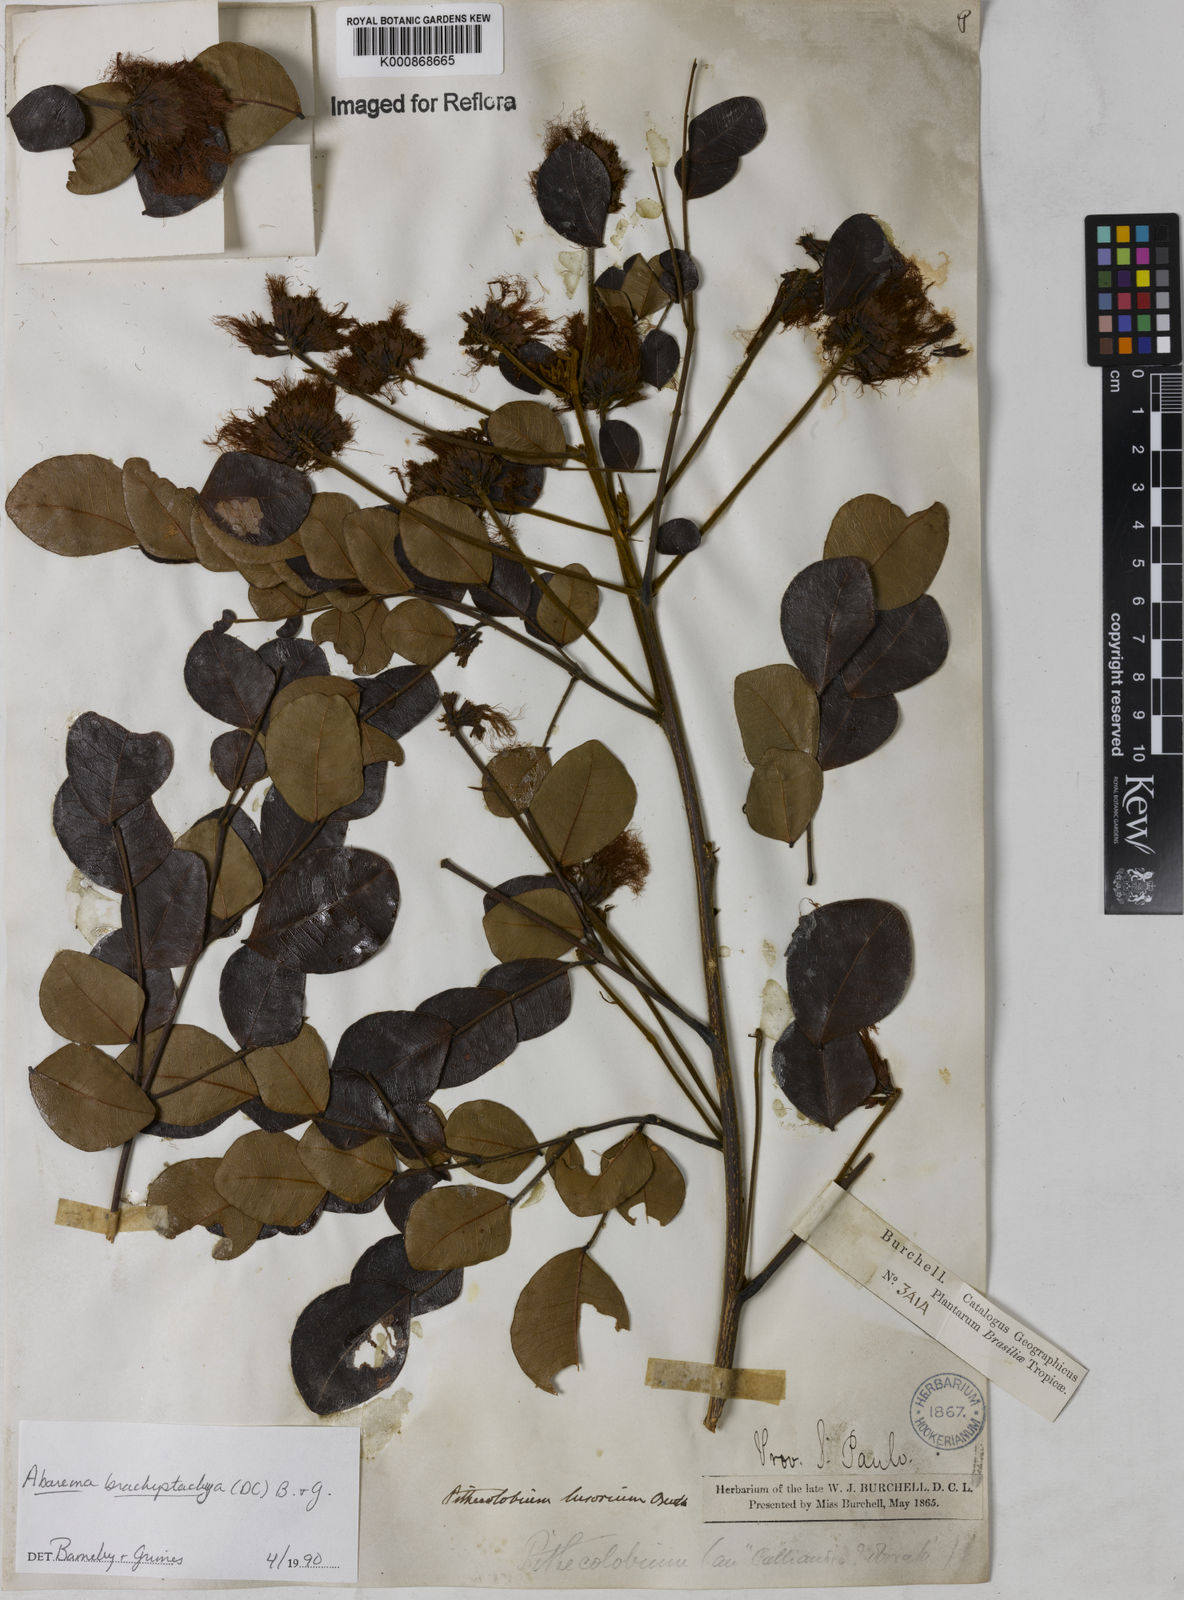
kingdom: Plantae
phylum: Tracheophyta
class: Magnoliopsida
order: Fabales
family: Fabaceae
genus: Abarema
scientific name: Abarema
